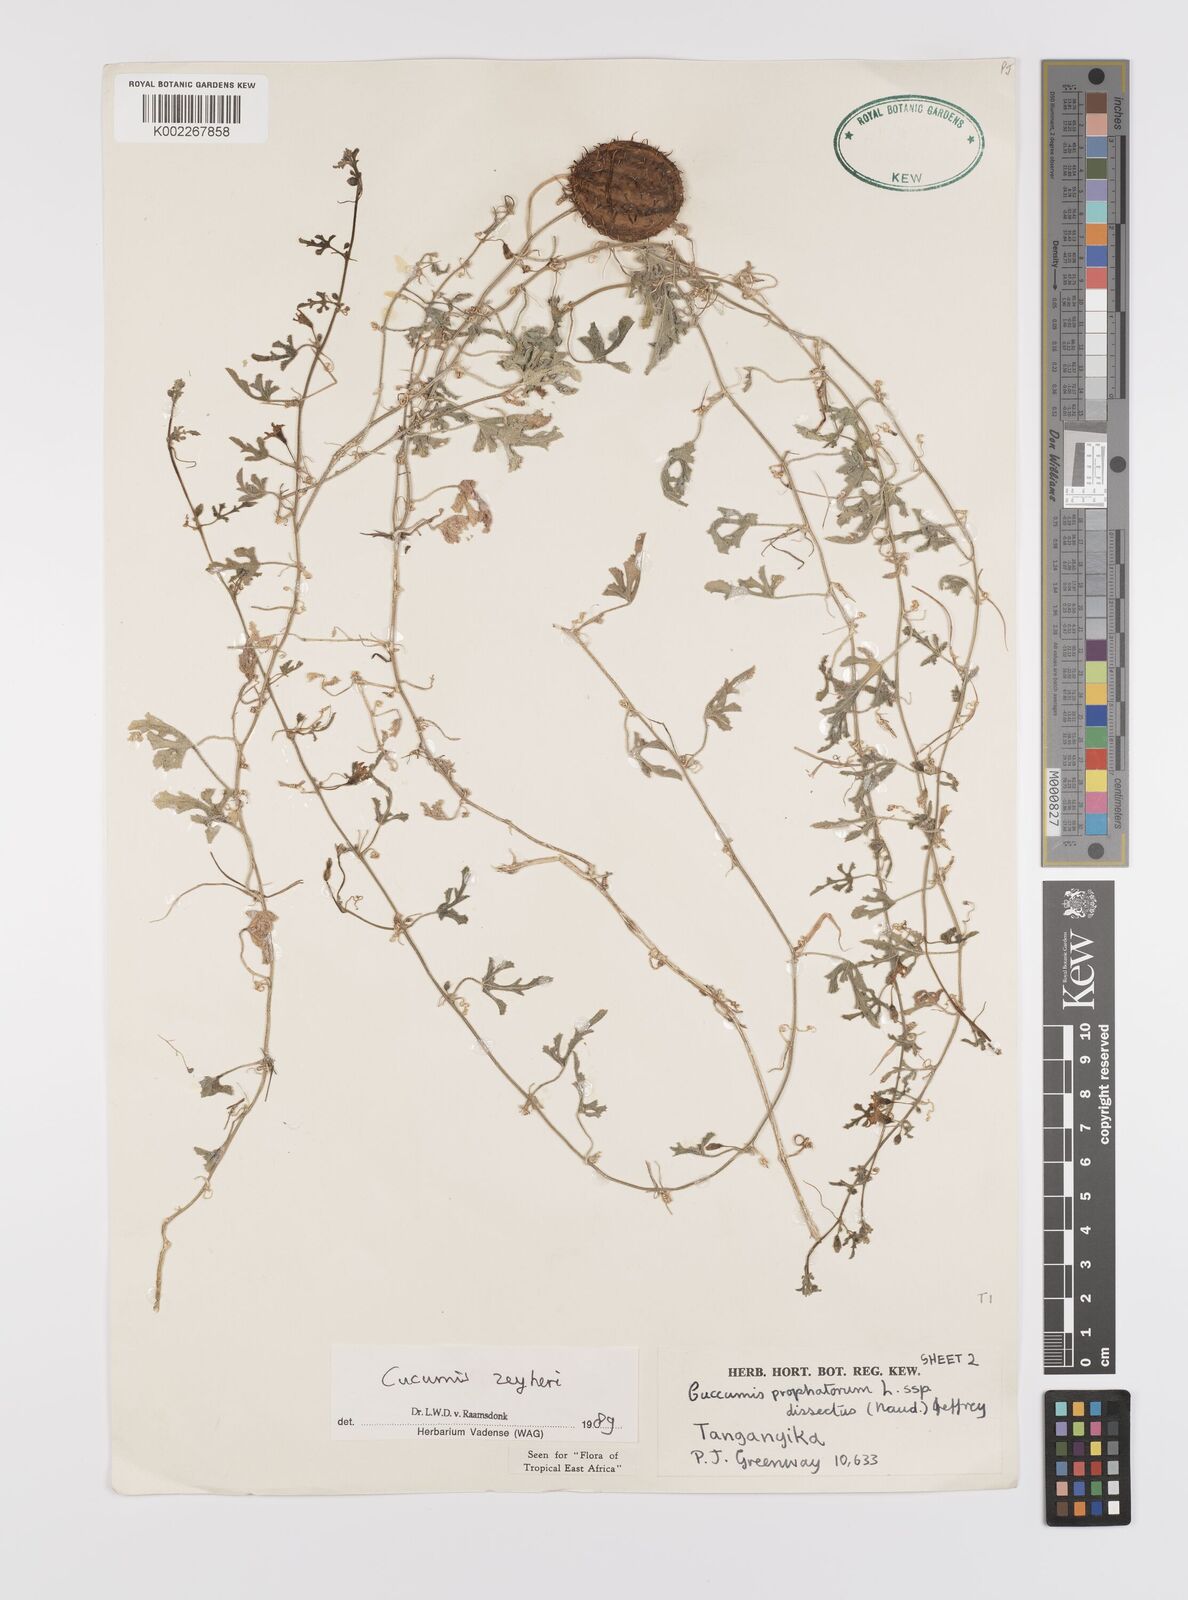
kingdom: Plantae
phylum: Tracheophyta
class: Magnoliopsida
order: Cucurbitales
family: Cucurbitaceae
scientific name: Cucurbitaceae
